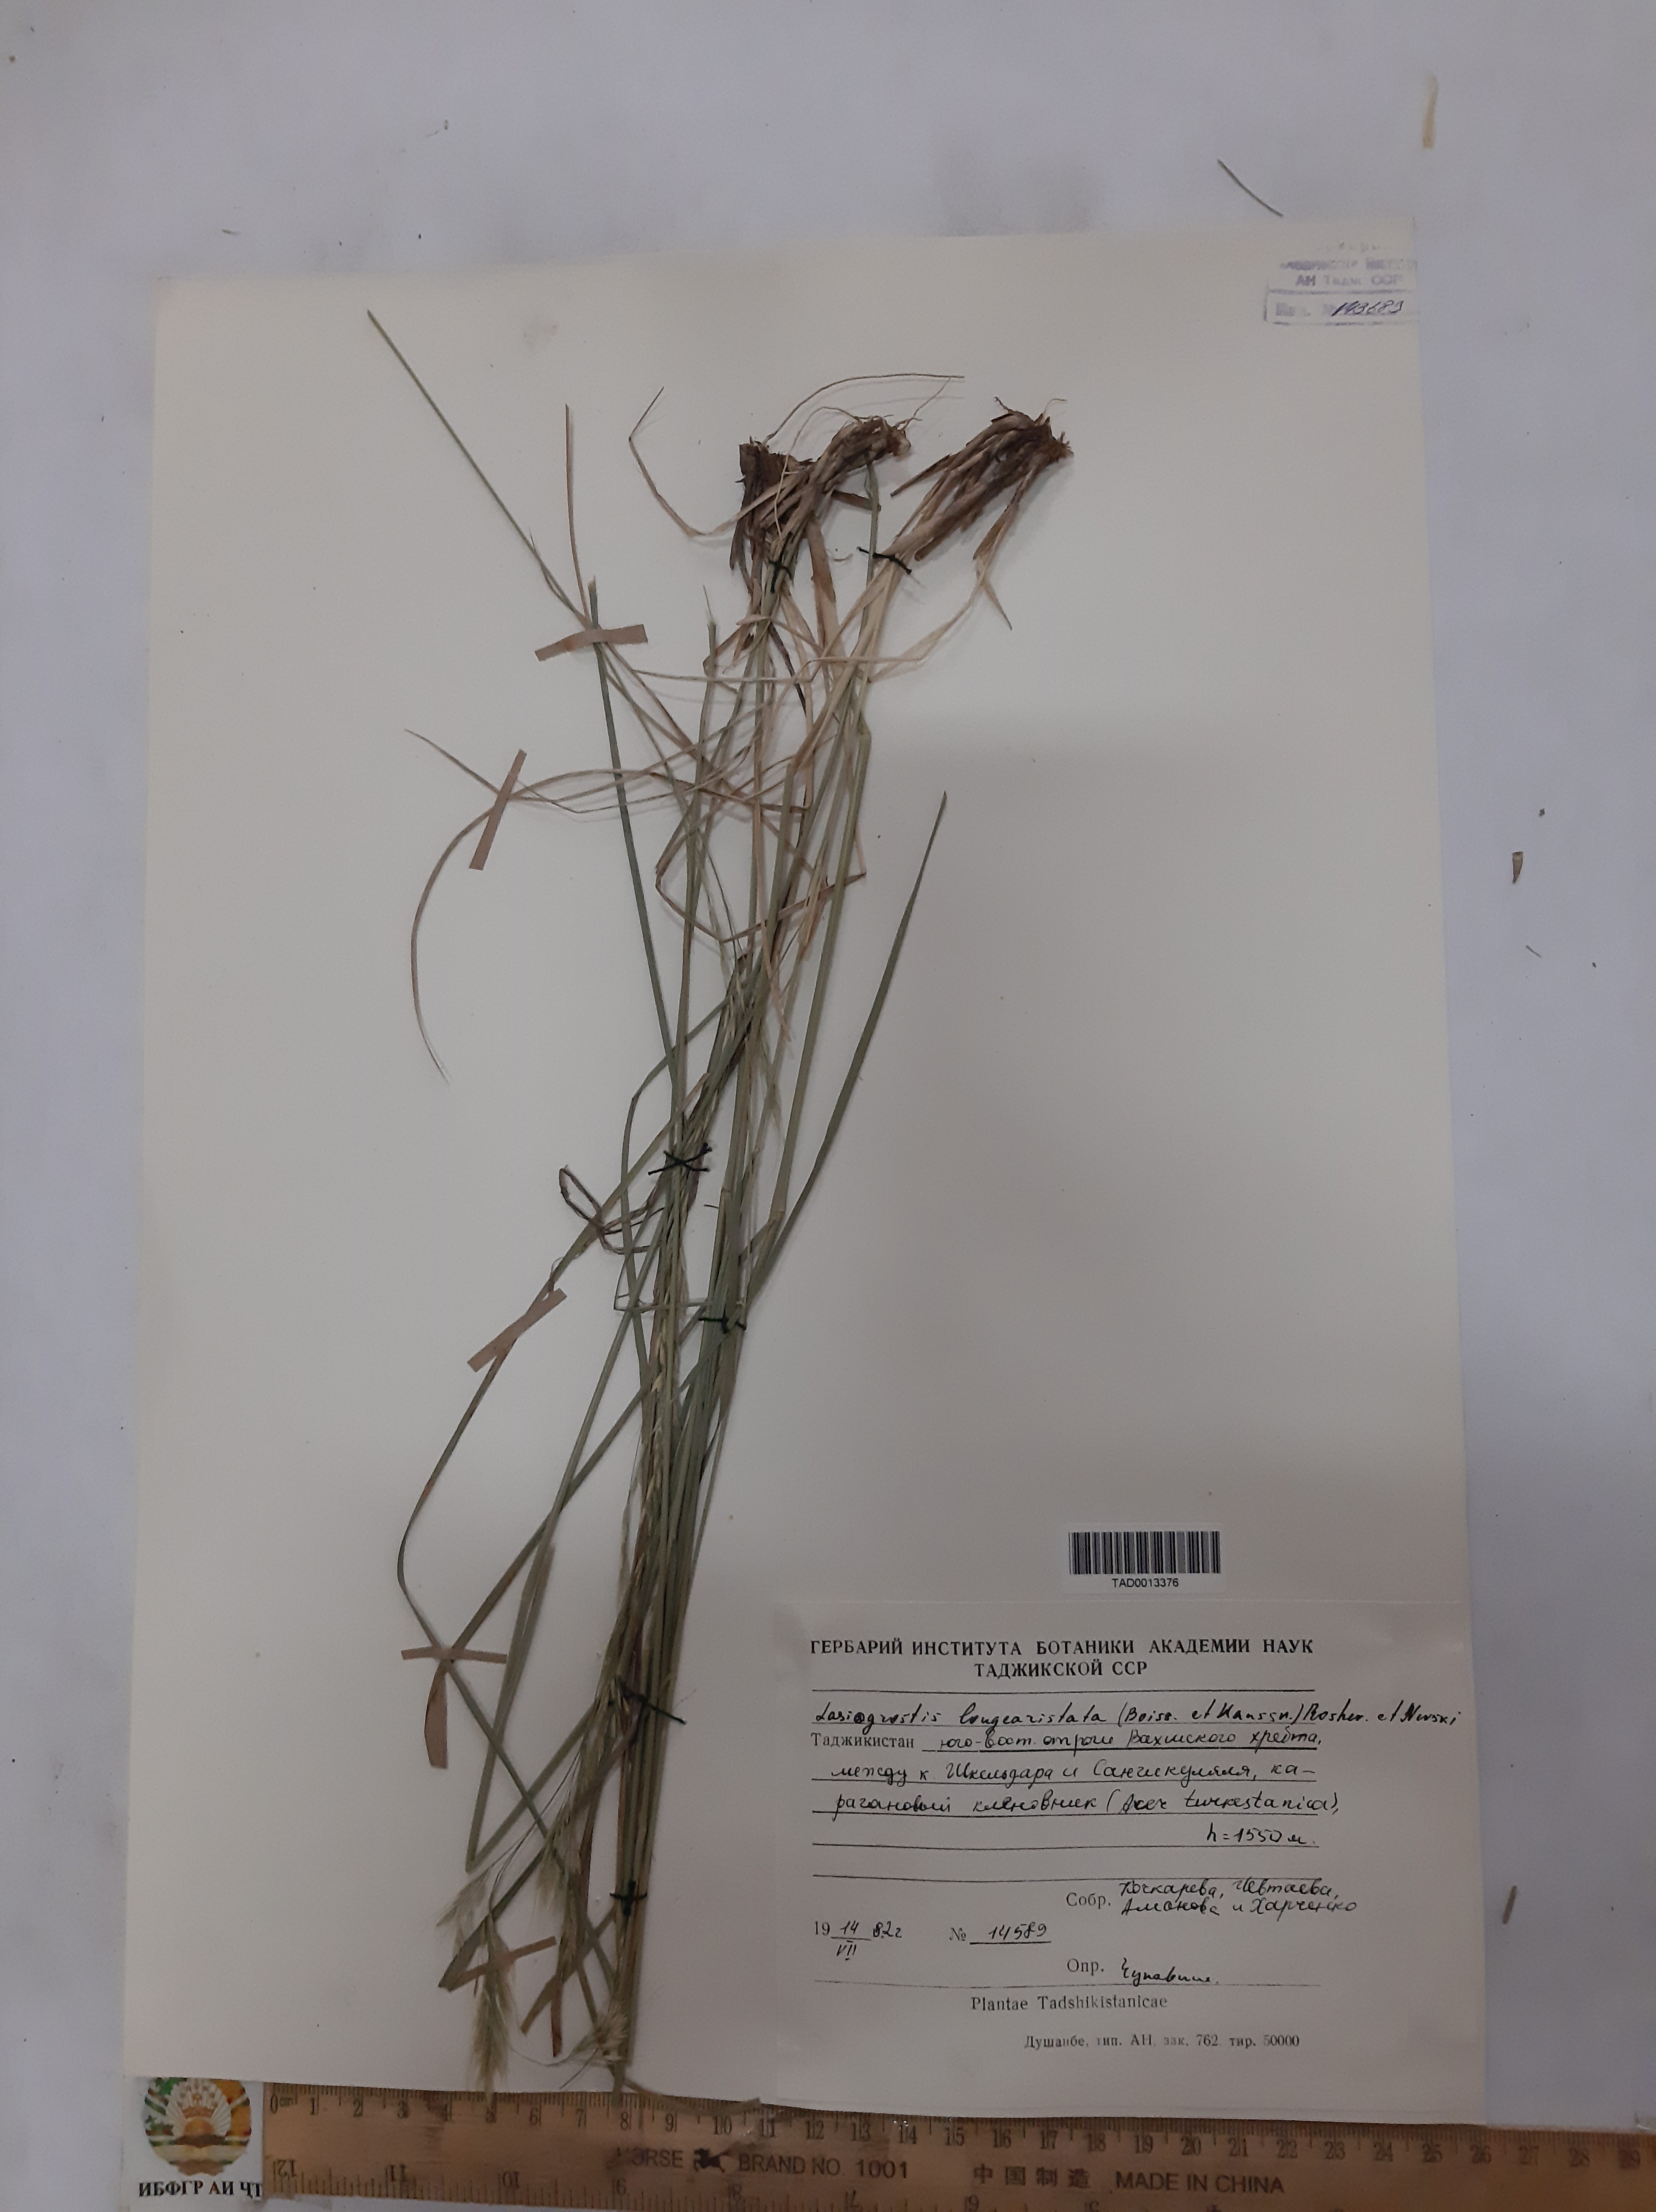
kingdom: Plantae
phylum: Tracheophyta
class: Liliopsida
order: Poales
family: Poaceae
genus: Achnatherum
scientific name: Achnatherum turcomanicum
